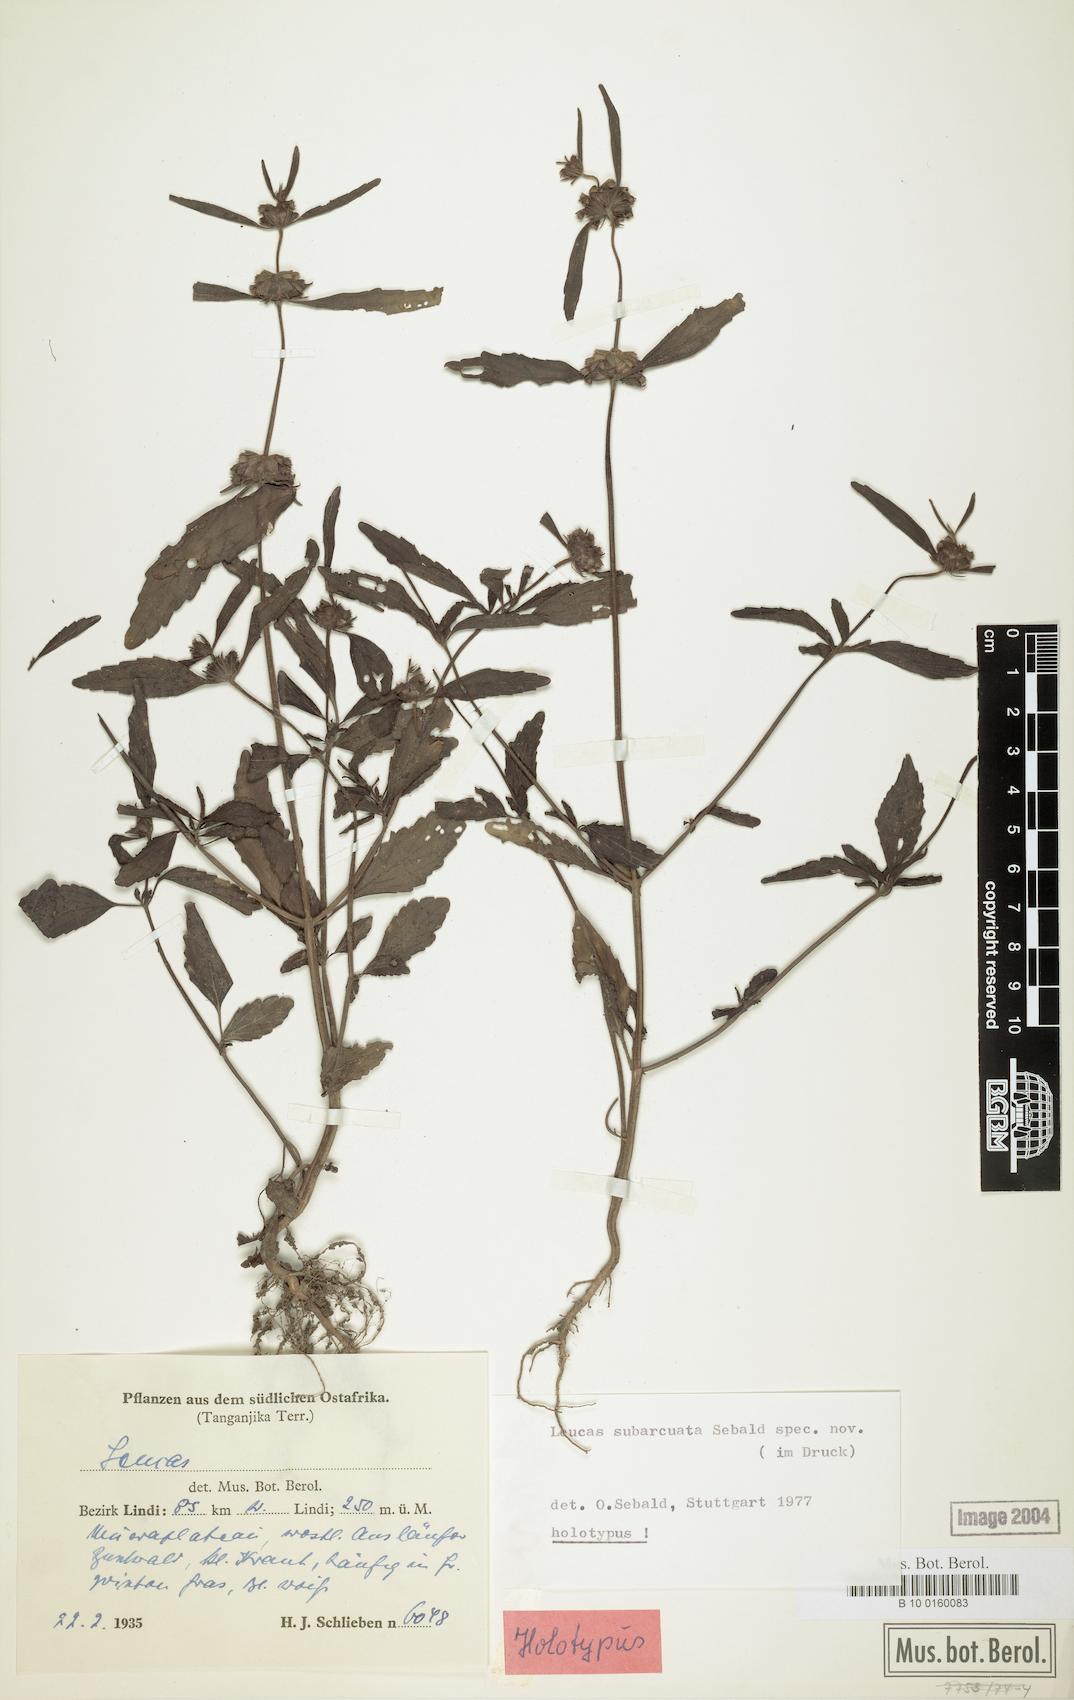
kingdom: Plantae
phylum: Tracheophyta
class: Magnoliopsida
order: Lamiales
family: Lamiaceae
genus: Leucas
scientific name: Leucas subarcuata
